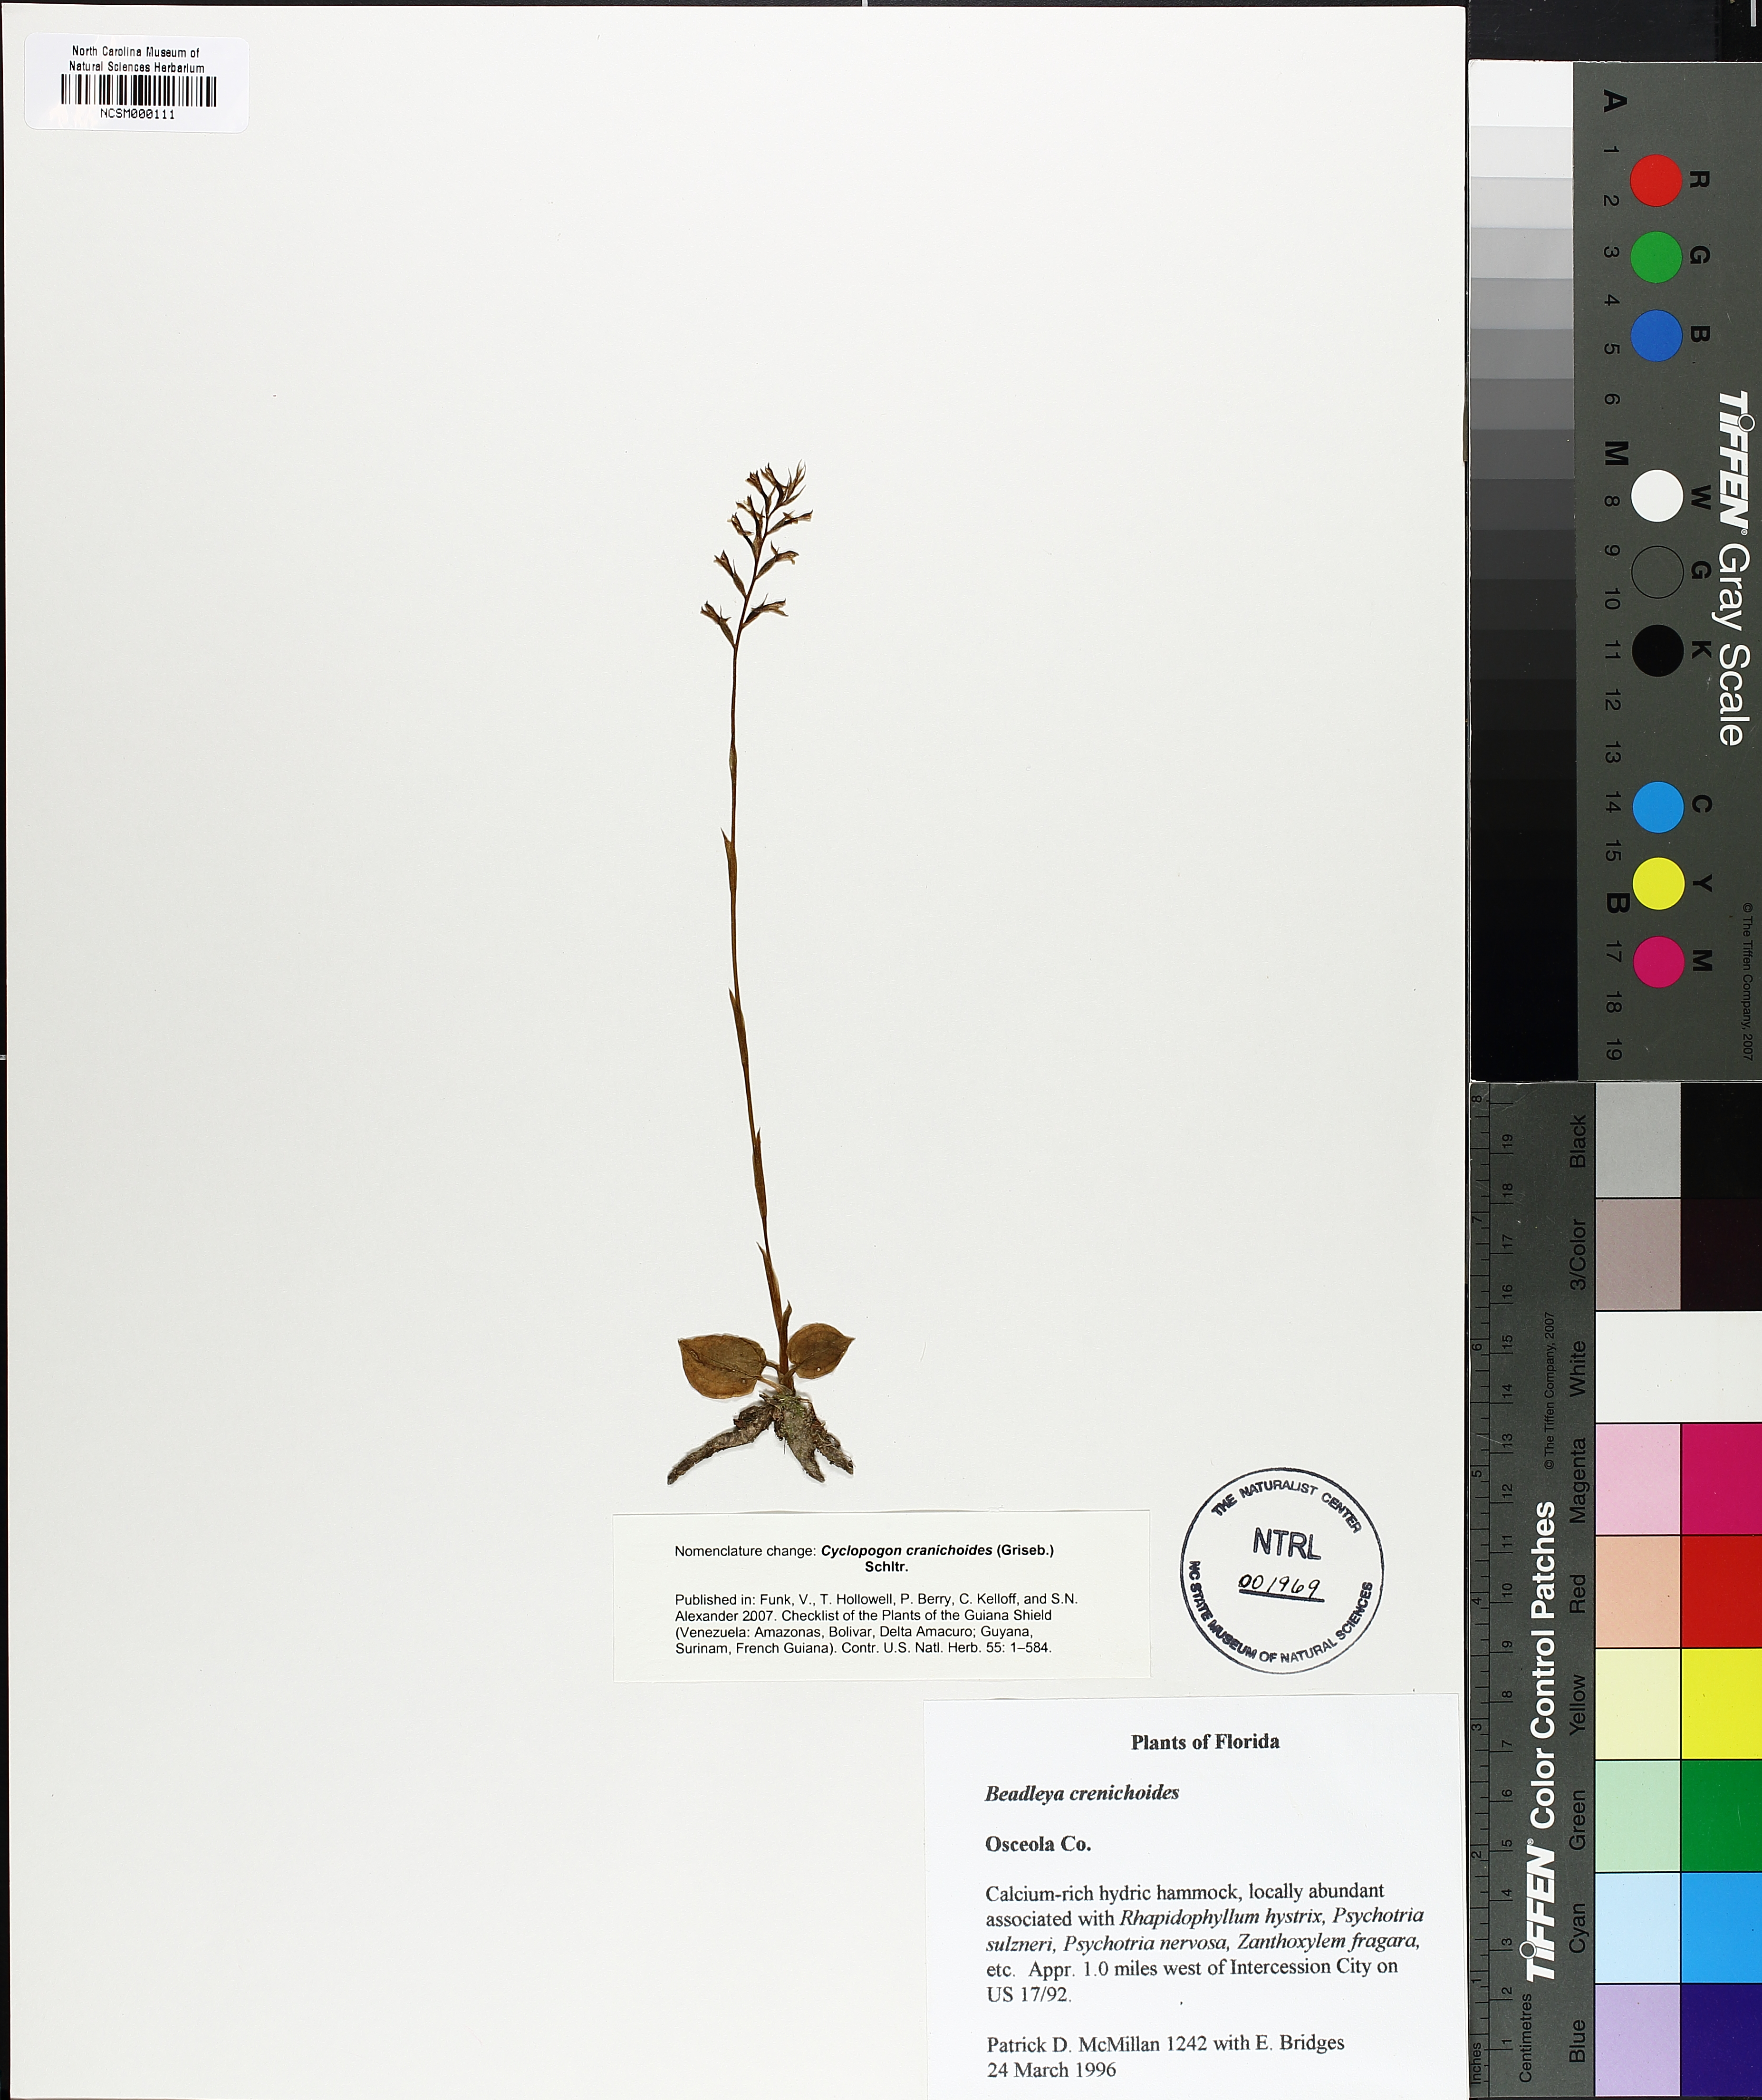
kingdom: Plantae
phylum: Tracheophyta
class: Liliopsida
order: Asparagales
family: Orchidaceae
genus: Cyclopogon
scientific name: Cyclopogon cranichoides
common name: Green ladies' tresses
